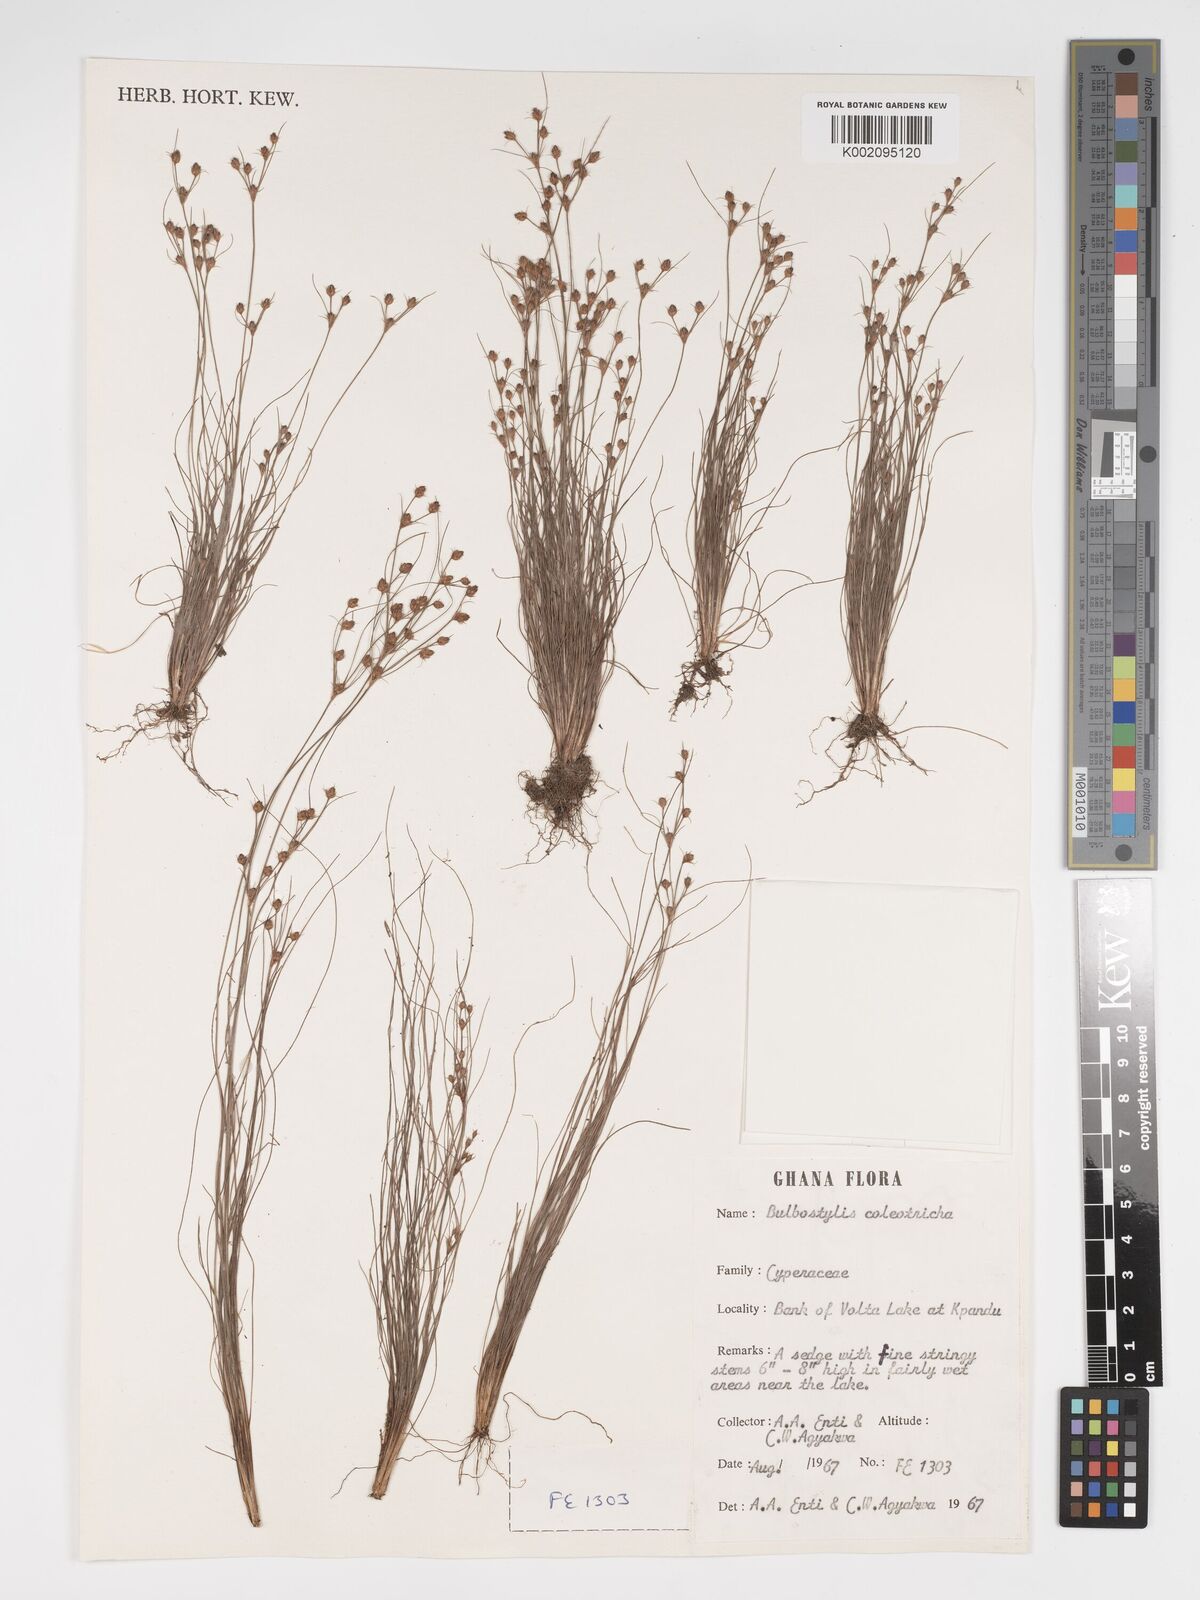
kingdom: Plantae
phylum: Tracheophyta
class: Liliopsida
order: Poales
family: Cyperaceae
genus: Bulbostylis
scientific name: Bulbostylis coleotricha
